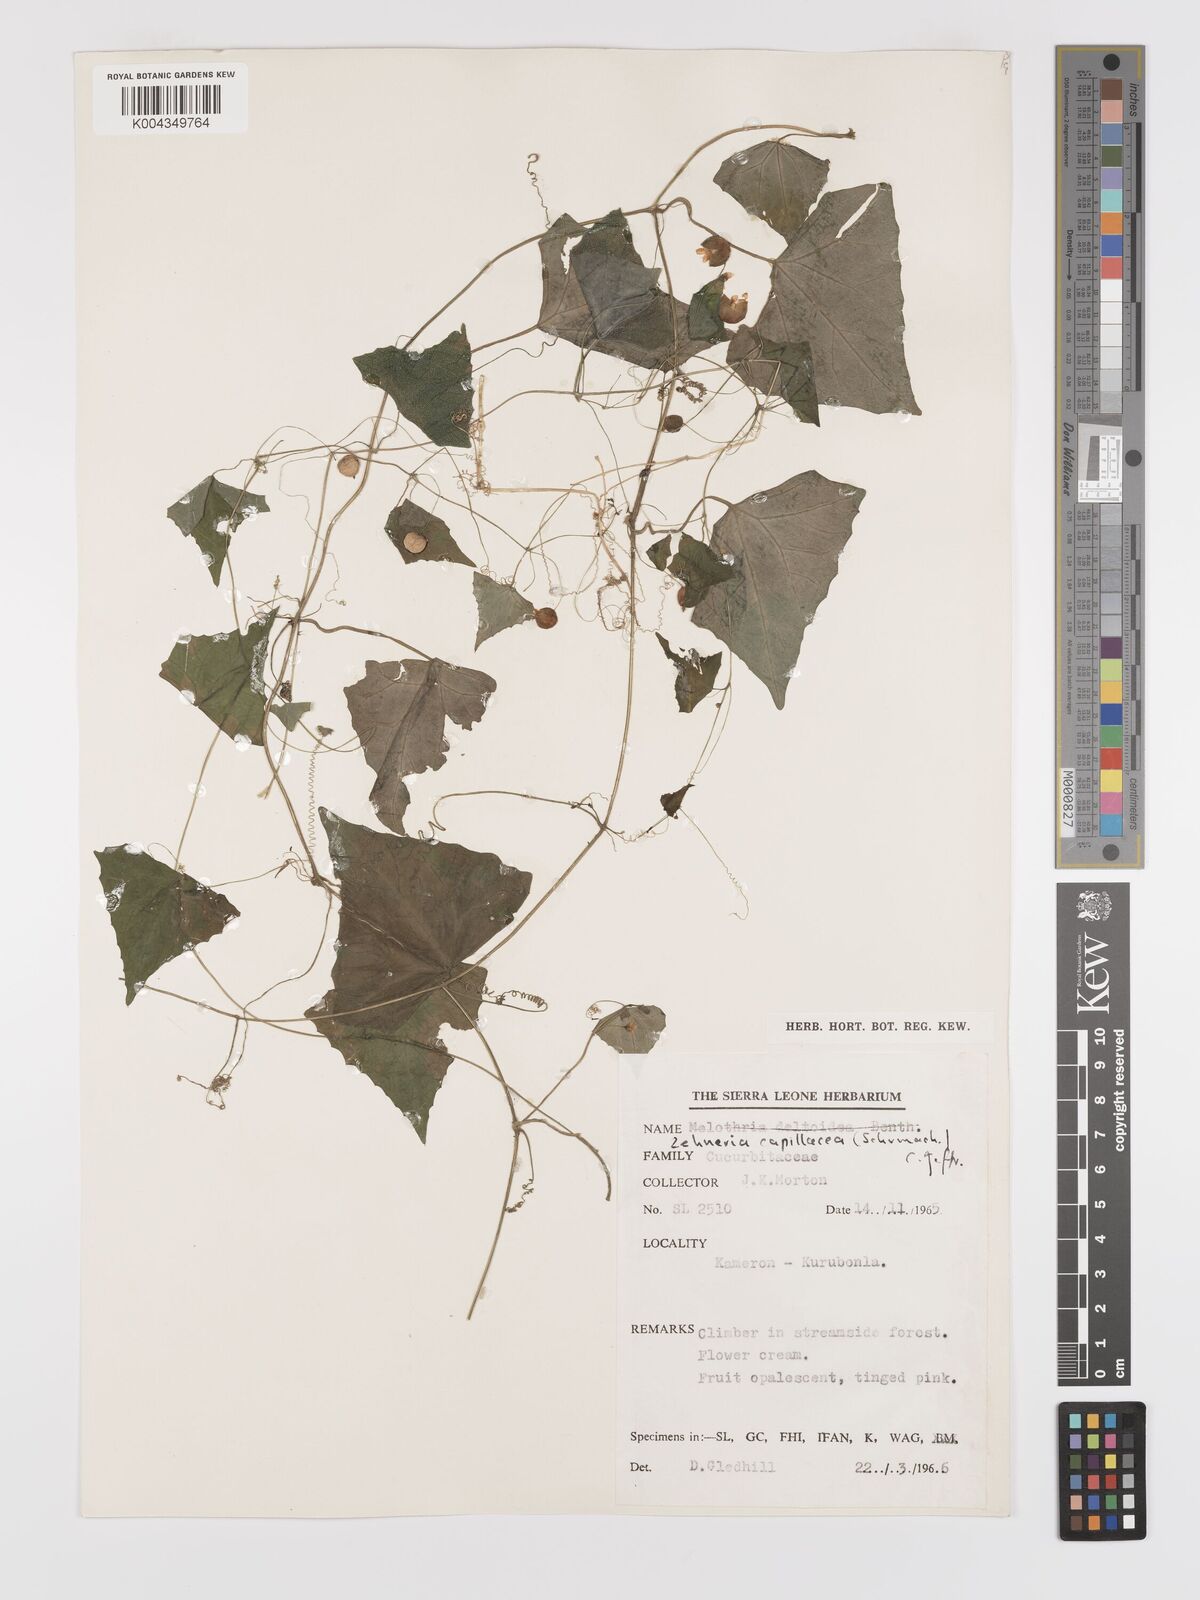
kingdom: Plantae
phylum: Tracheophyta
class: Magnoliopsida
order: Cucurbitales
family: Cucurbitaceae
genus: Zehneria
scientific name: Zehneria capillacea
